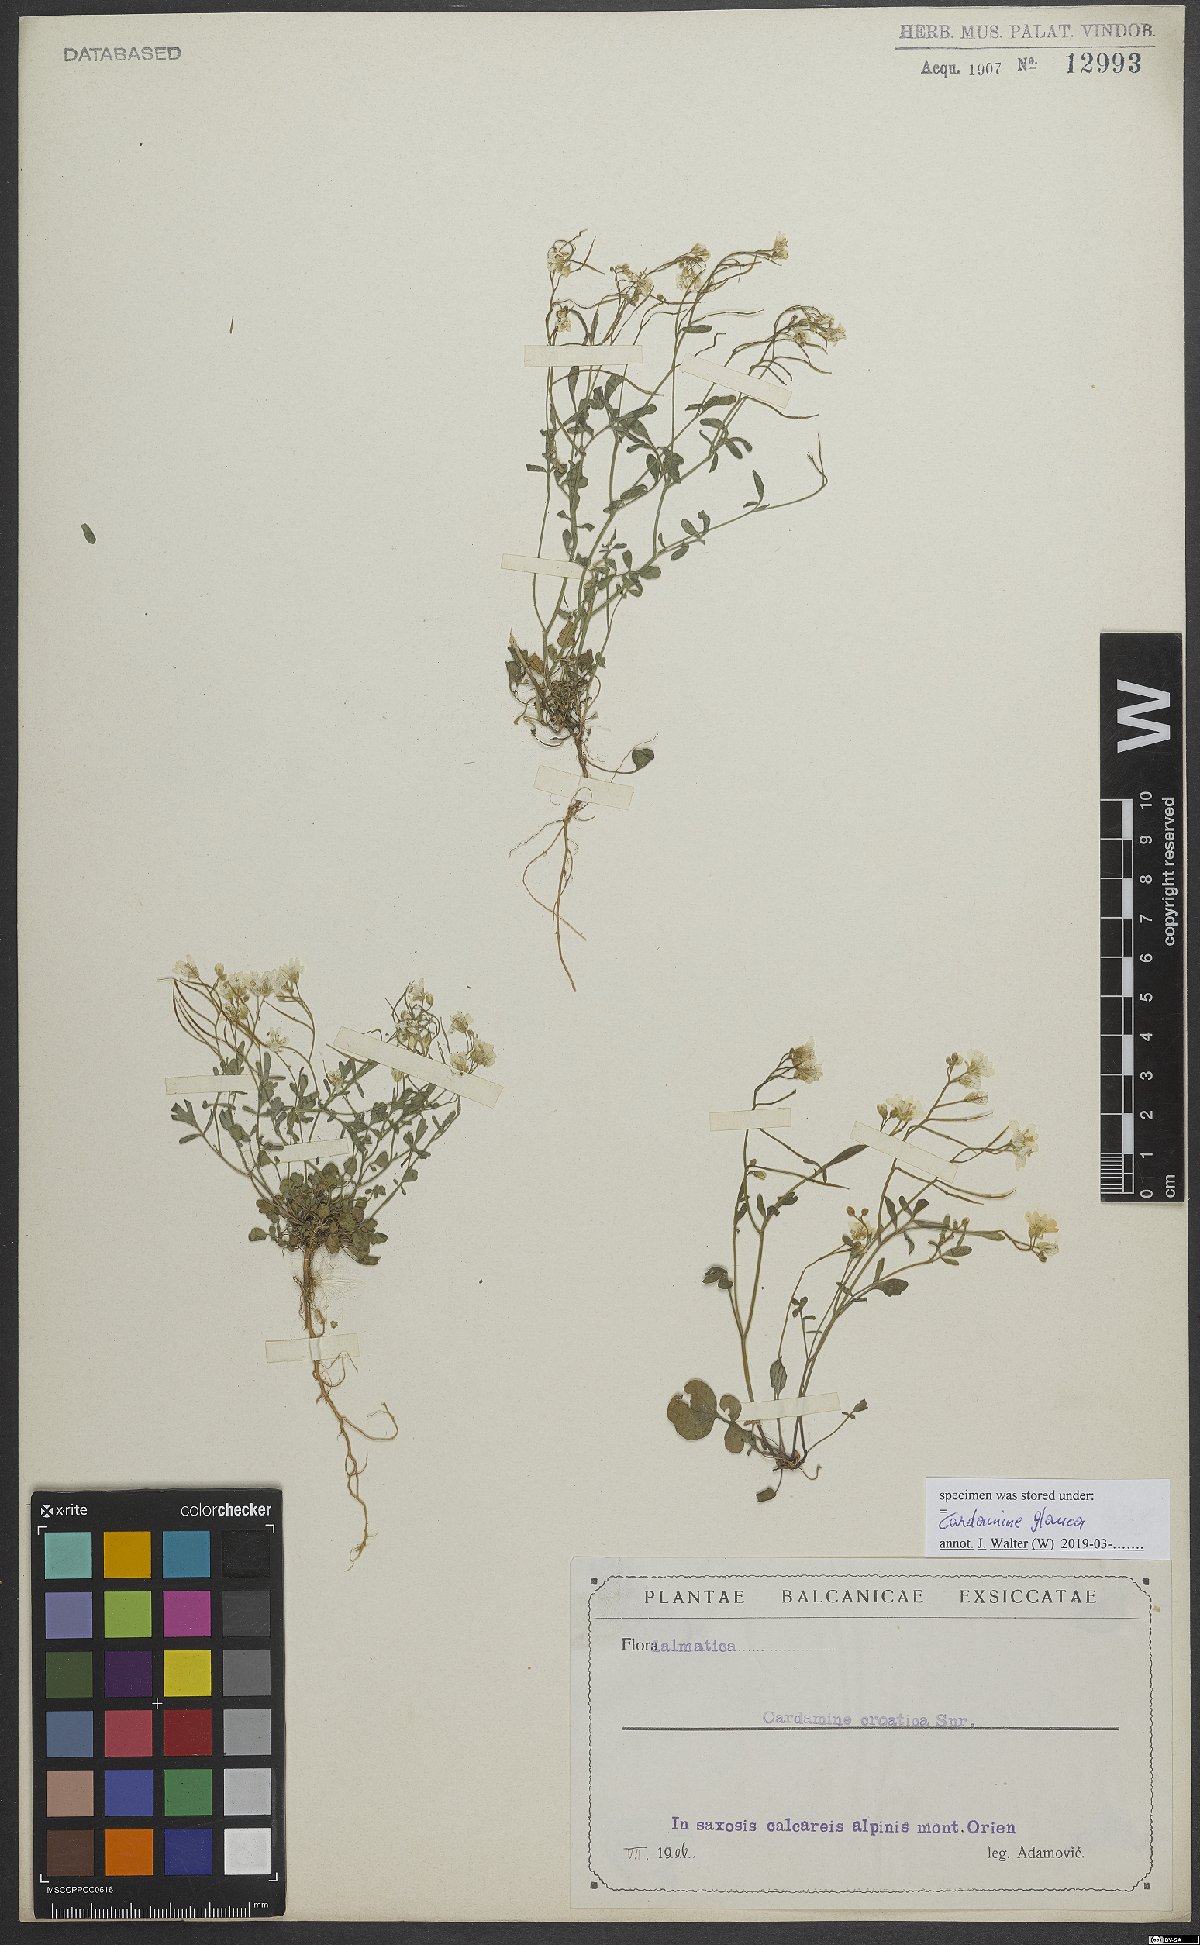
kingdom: Plantae
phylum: Tracheophyta
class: Magnoliopsida
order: Brassicales
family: Brassicaceae
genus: Cardamine
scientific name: Cardamine glauca
